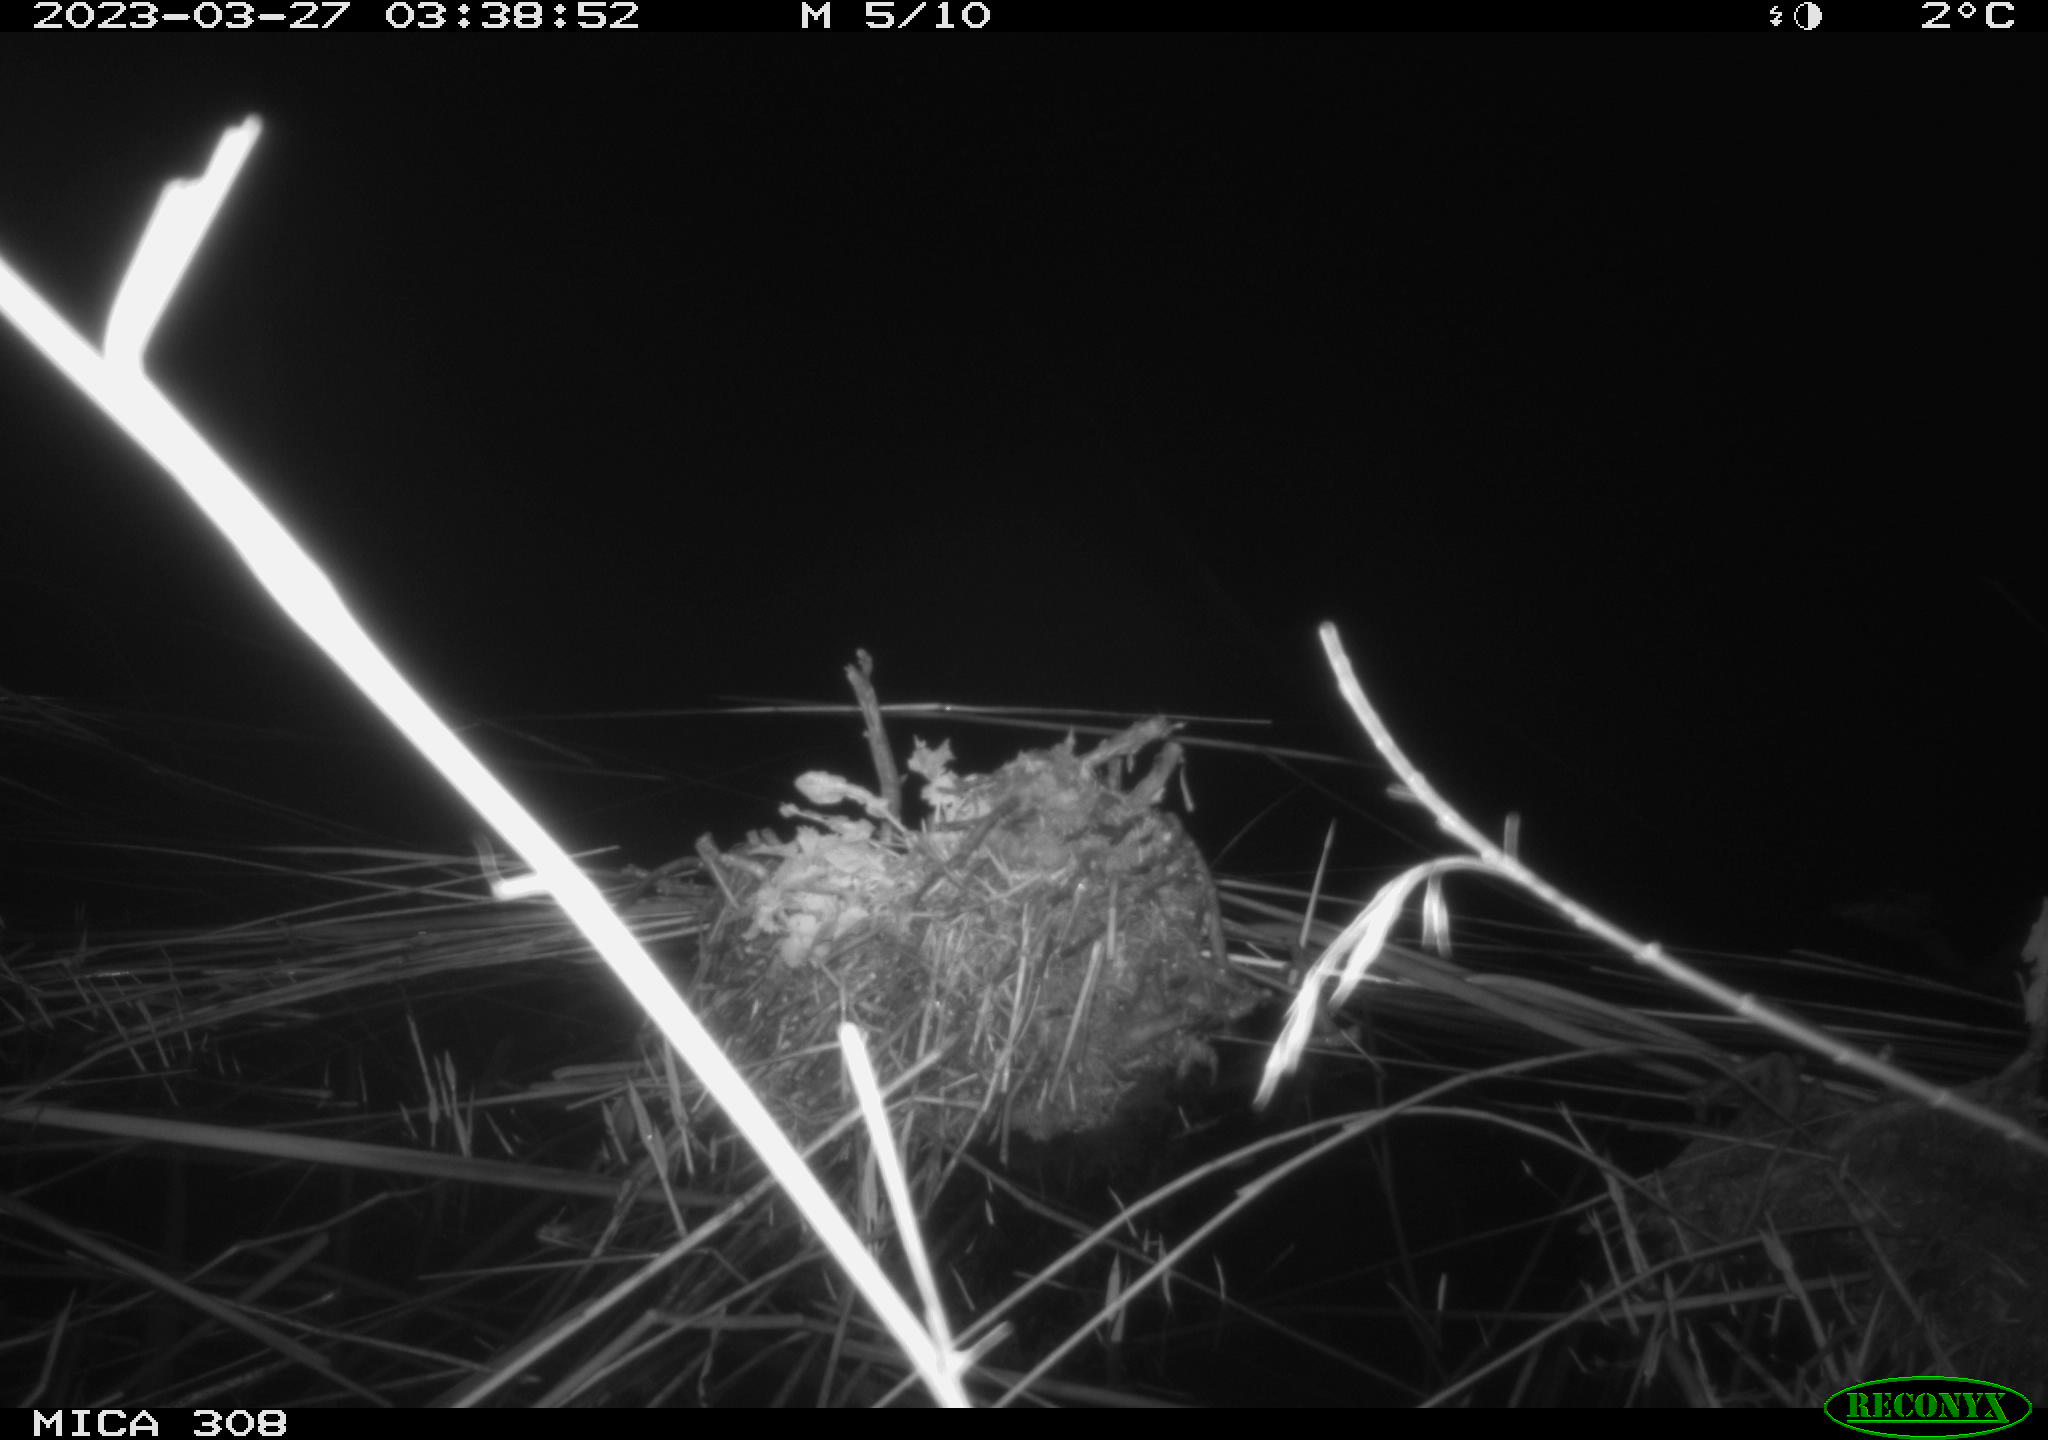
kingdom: Animalia
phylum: Chordata
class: Aves
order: Anseriformes
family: Anatidae
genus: Anas
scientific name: Anas
